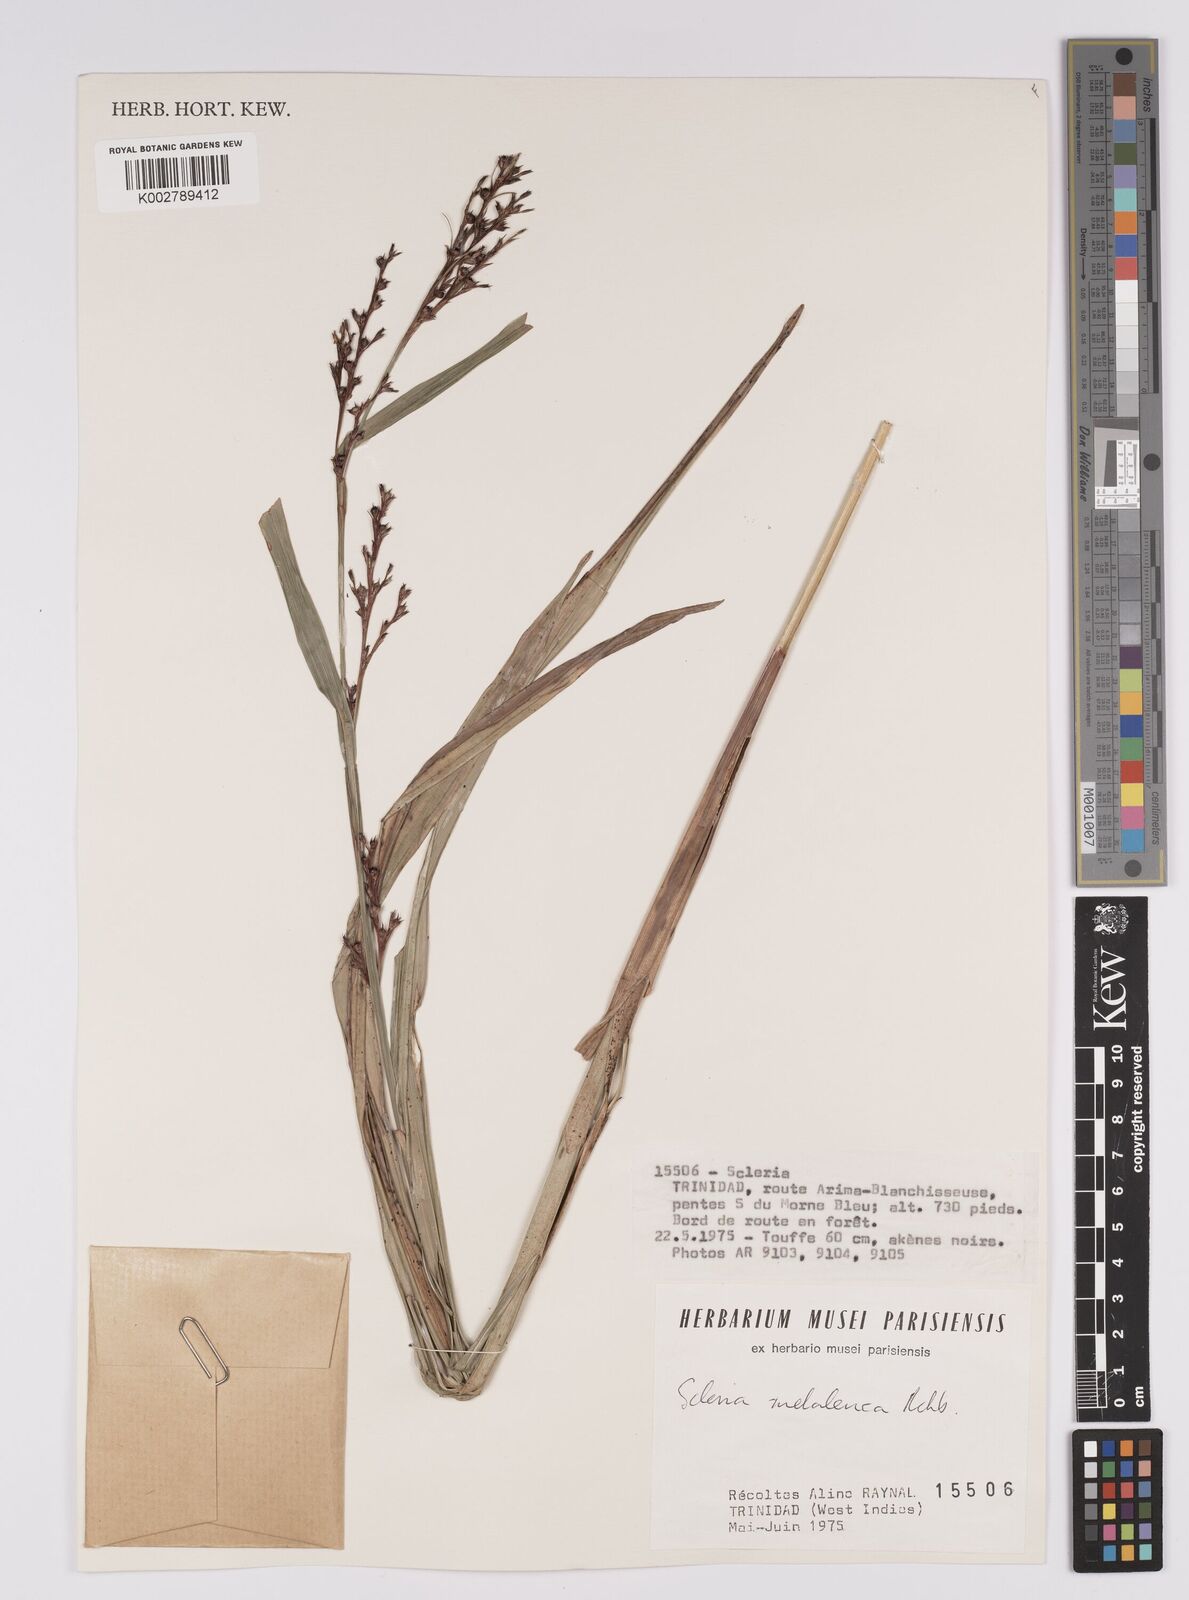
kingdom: Plantae
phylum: Tracheophyta
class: Liliopsida
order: Poales
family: Cyperaceae
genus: Scleria
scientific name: Scleria gaertneri
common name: Cortadera blanca
